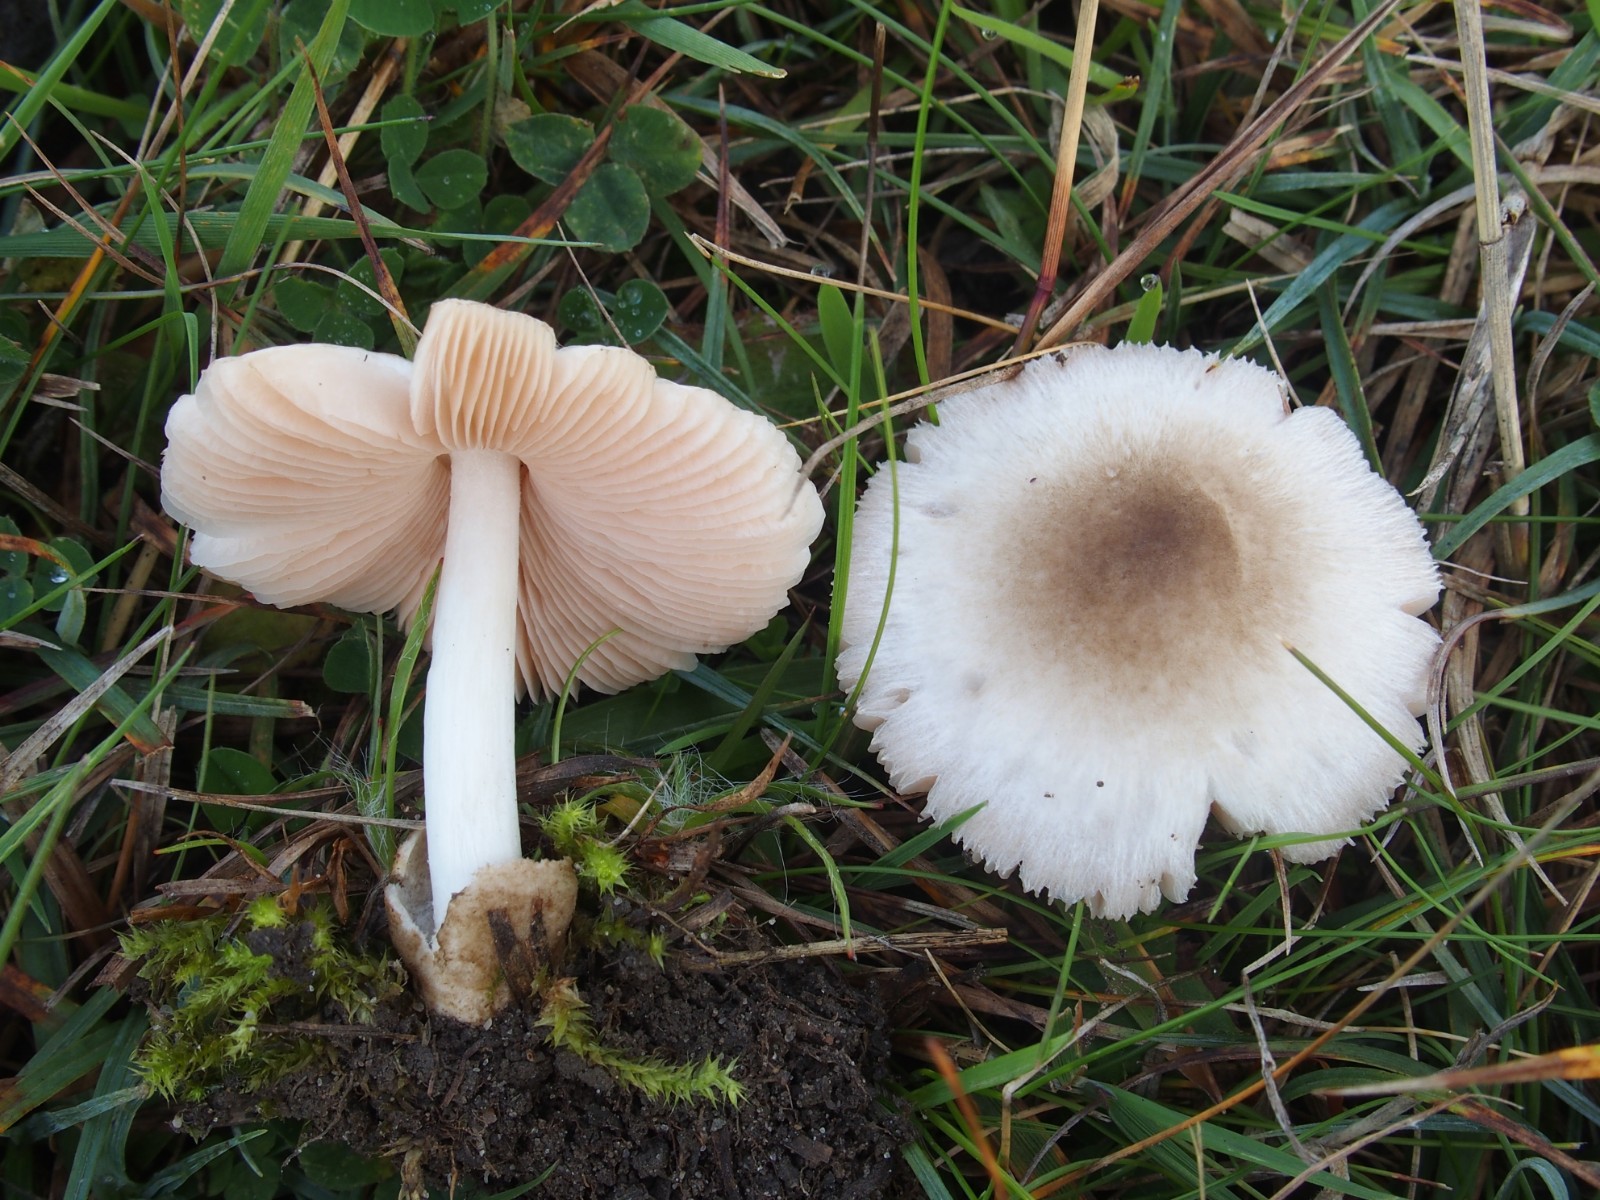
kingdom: Fungi
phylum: Basidiomycota
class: Agaricomycetes
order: Agaricales
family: Pluteaceae
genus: Volvariella
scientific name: Volvariella murinella
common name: musegrå posesvamp
